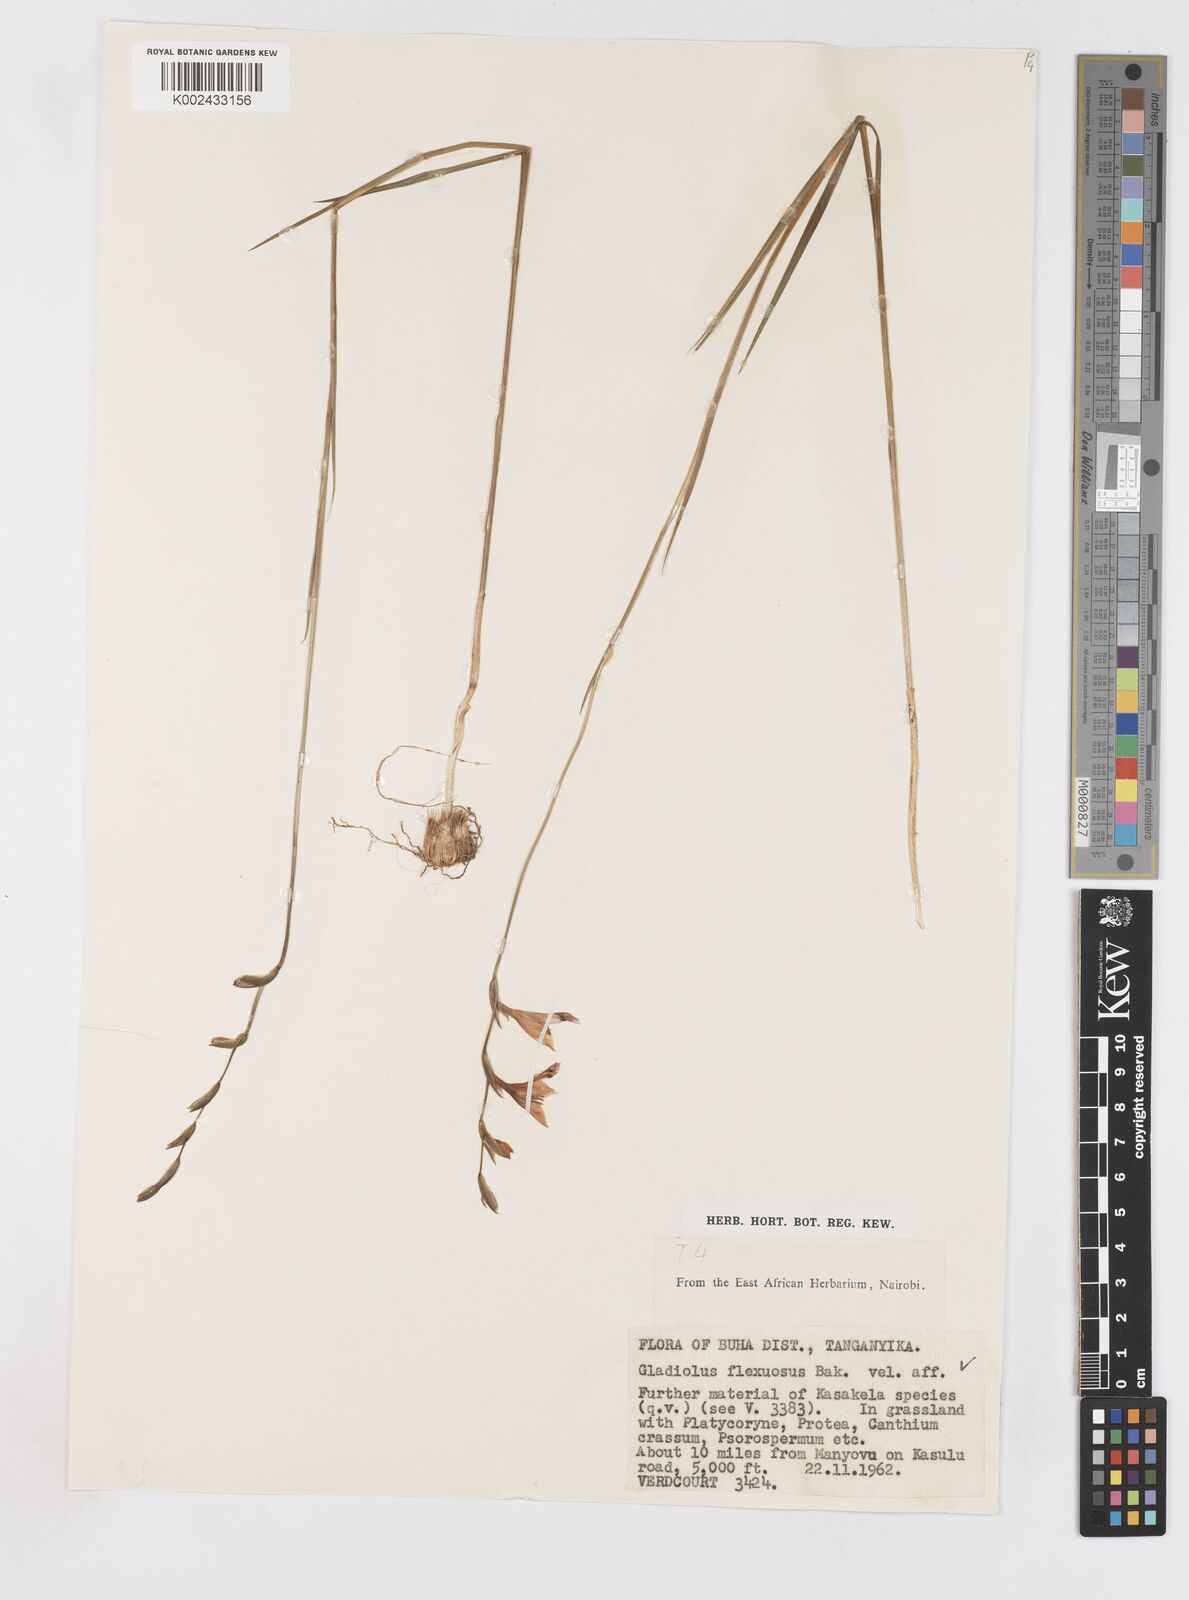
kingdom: Plantae
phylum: Tracheophyta
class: Liliopsida
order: Asparagales
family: Iridaceae
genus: Gladiolus
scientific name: Gladiolus atropurpureus
